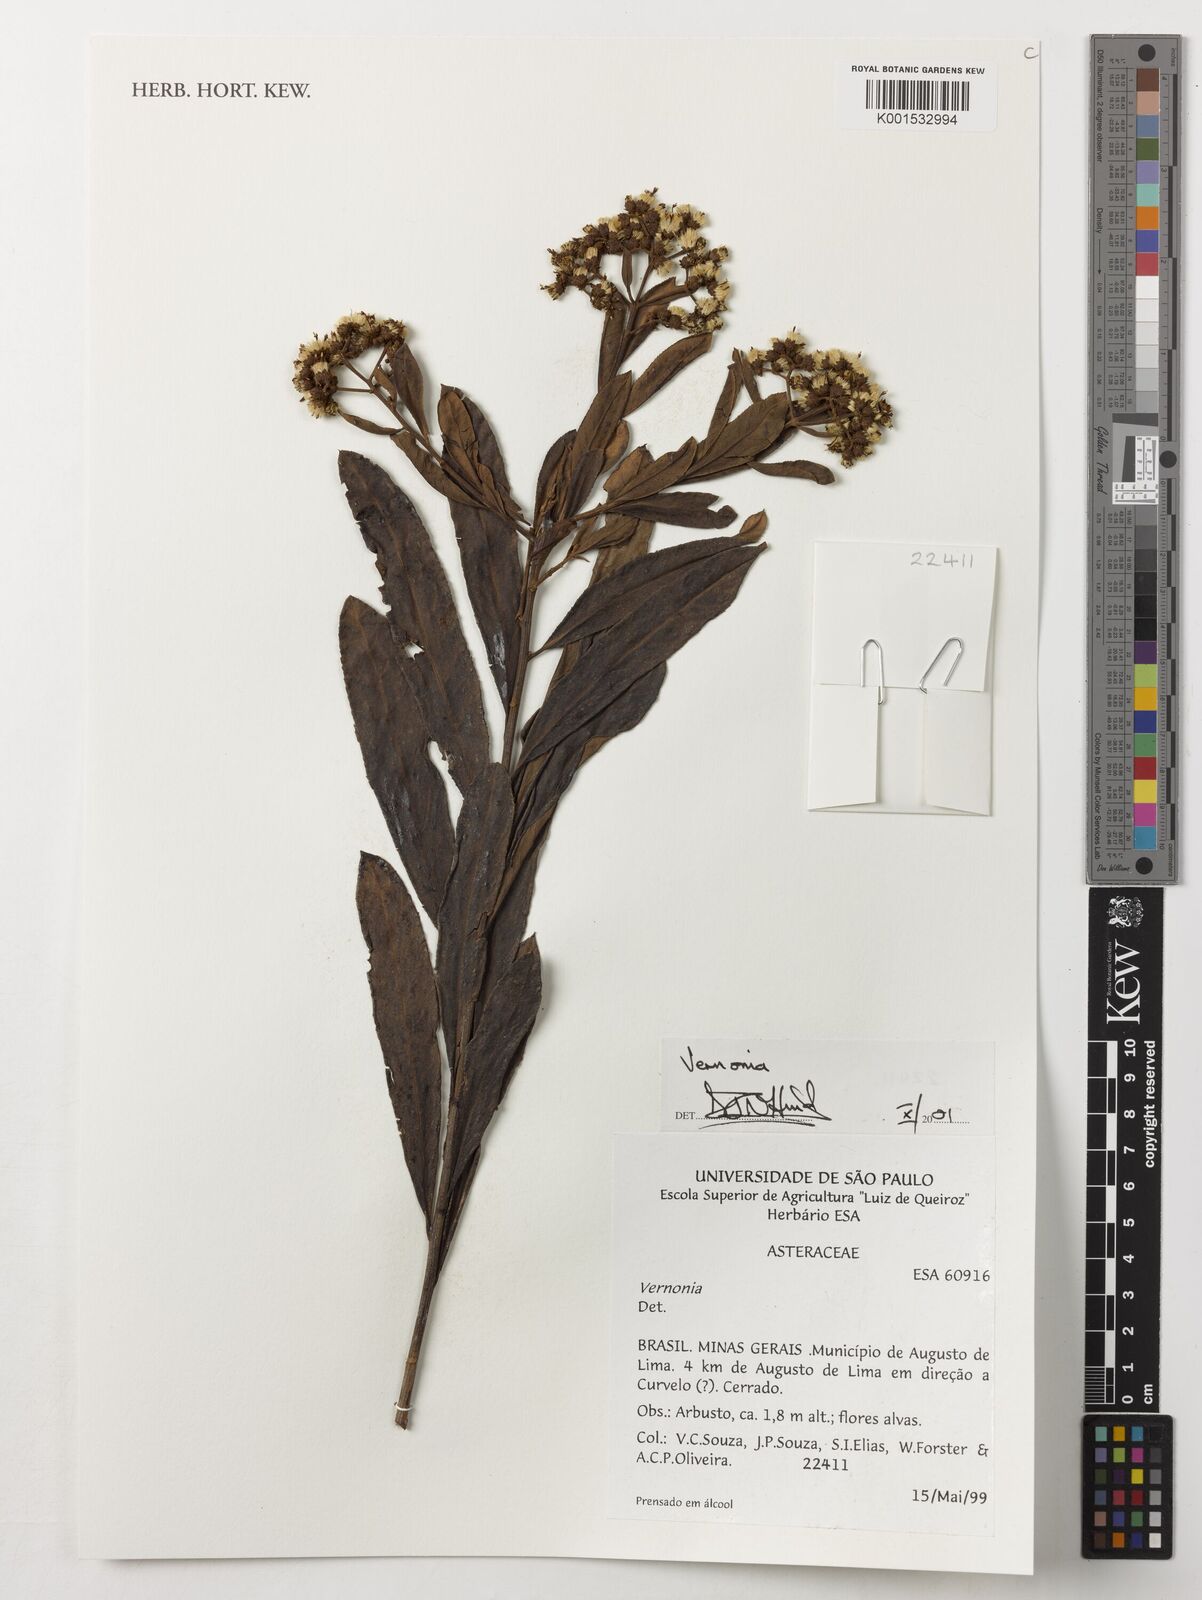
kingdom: Plantae
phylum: Tracheophyta
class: Magnoliopsida
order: Asterales
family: Asteraceae
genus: Vernonia
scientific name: Vernonia
